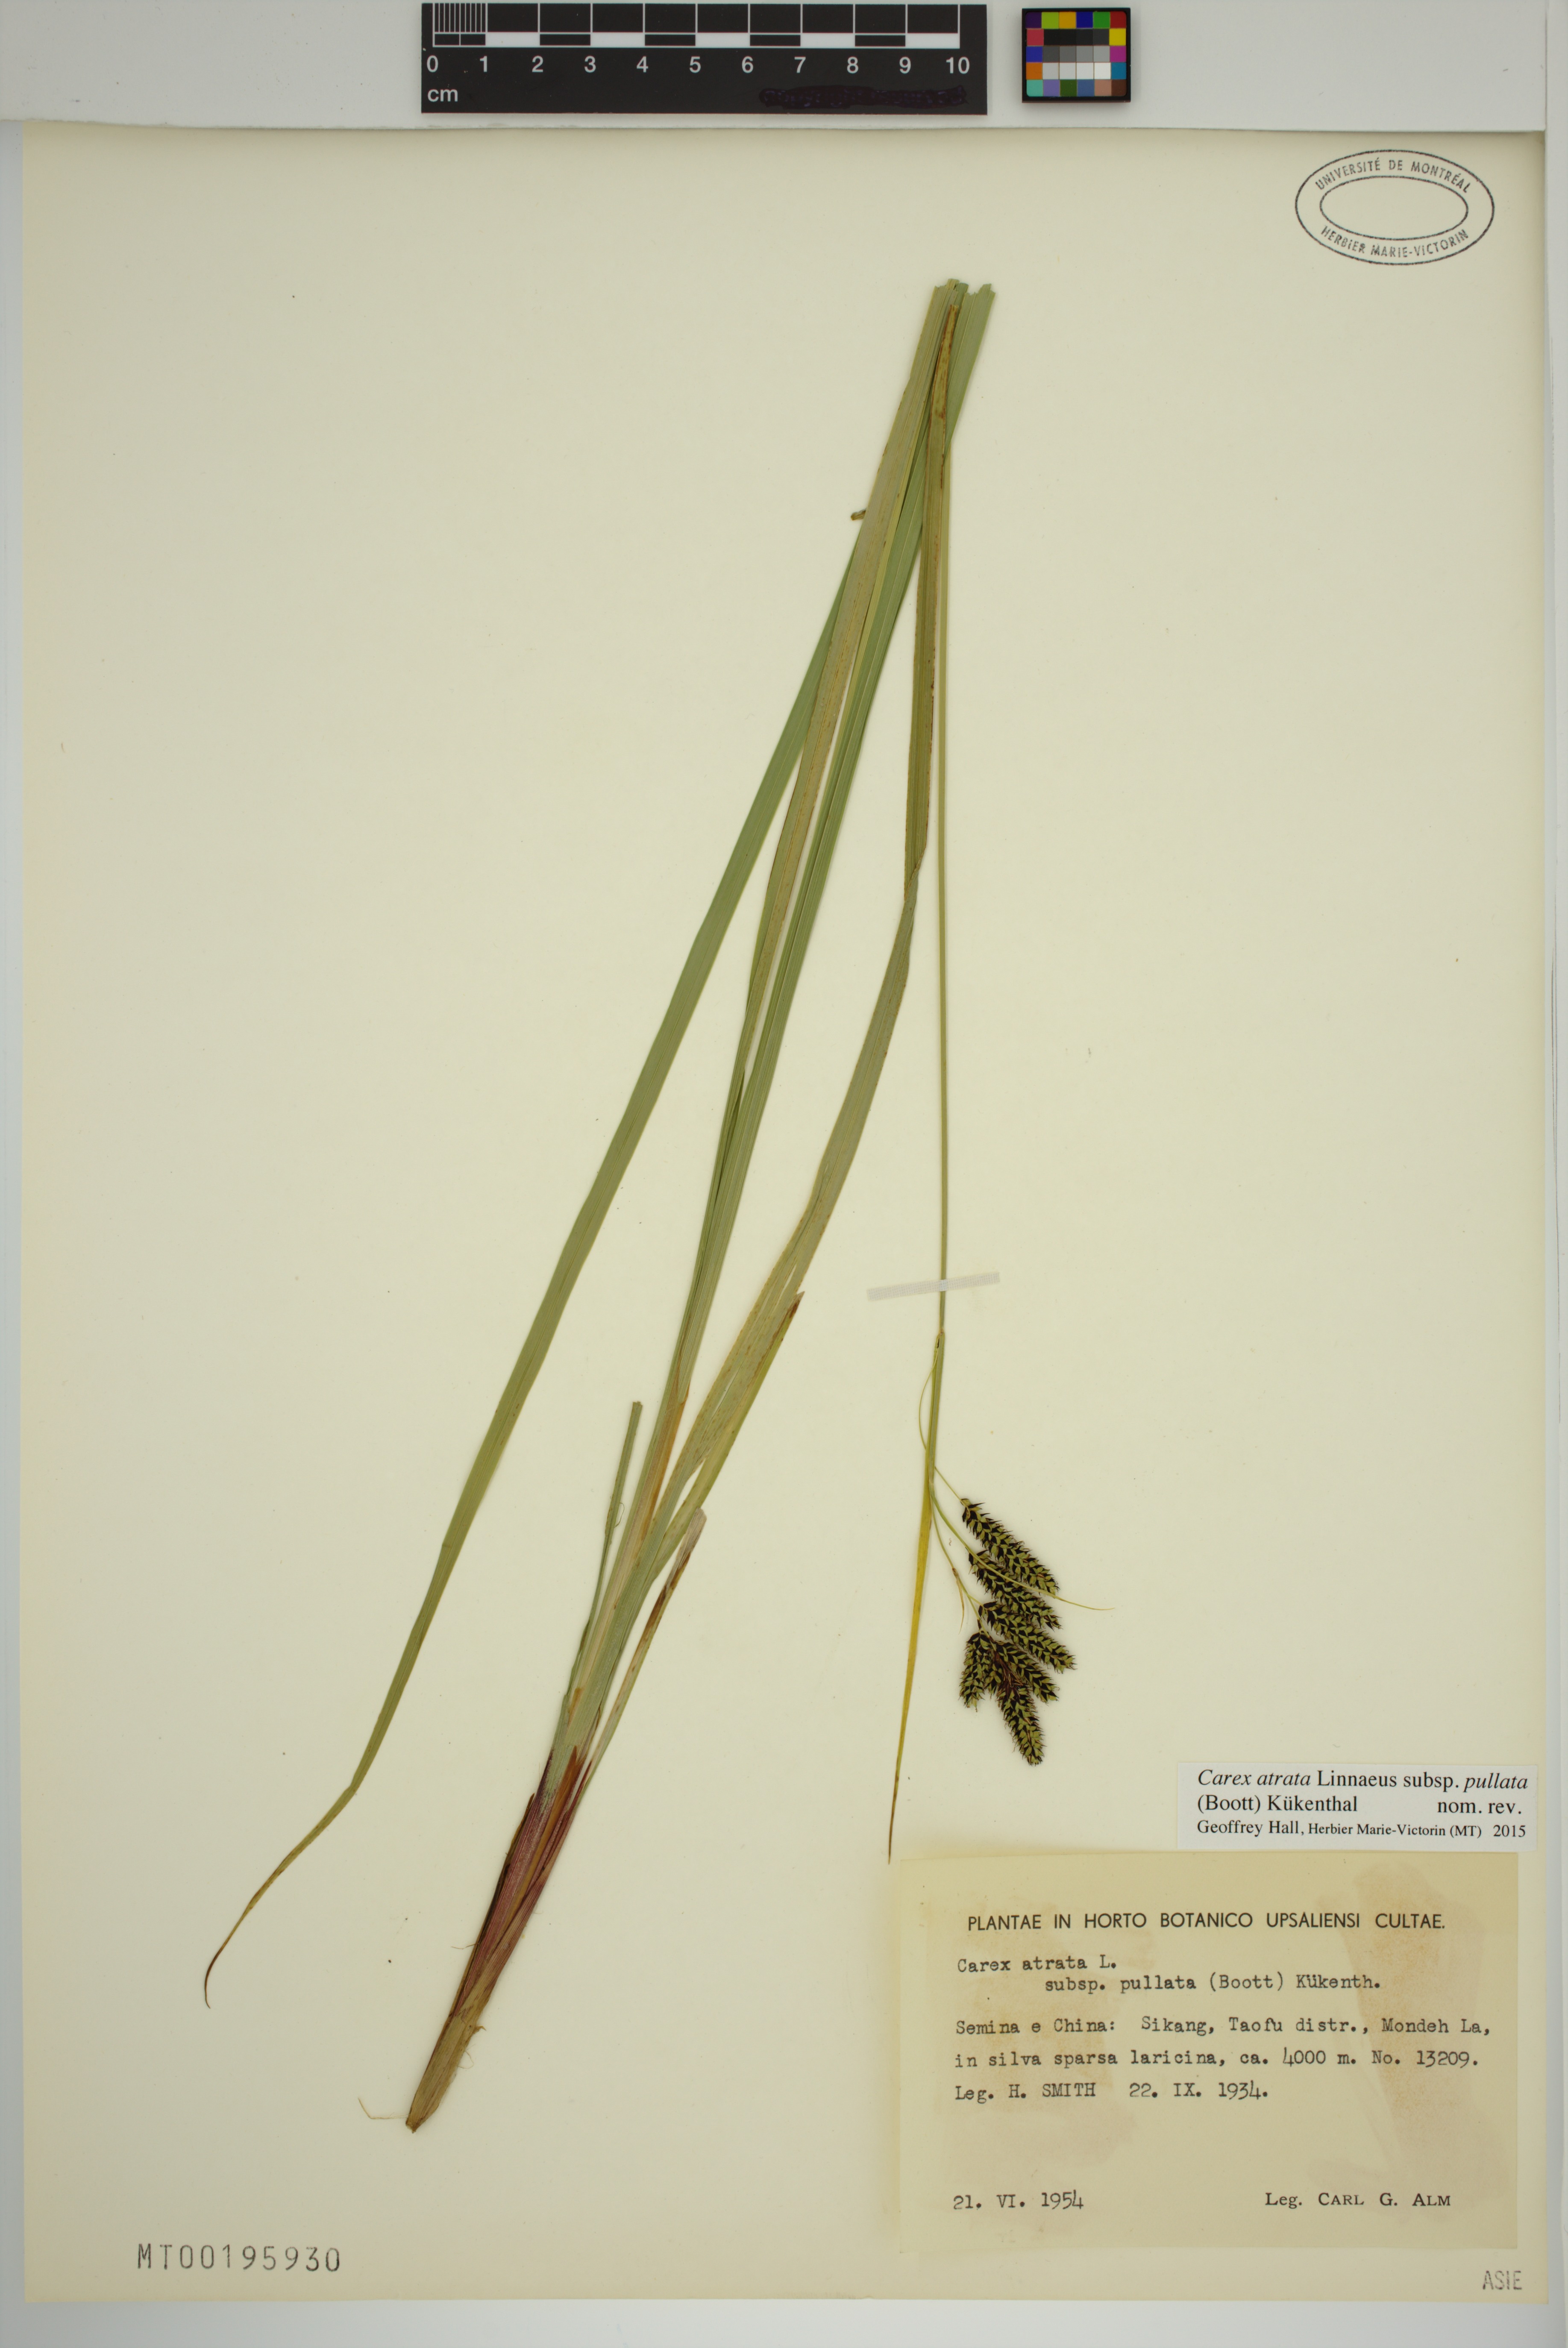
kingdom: Plantae
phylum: Tracheophyta
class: Liliopsida
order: Poales
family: Cyperaceae
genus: Carex
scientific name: Carex atrata
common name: Black alpine sedge
